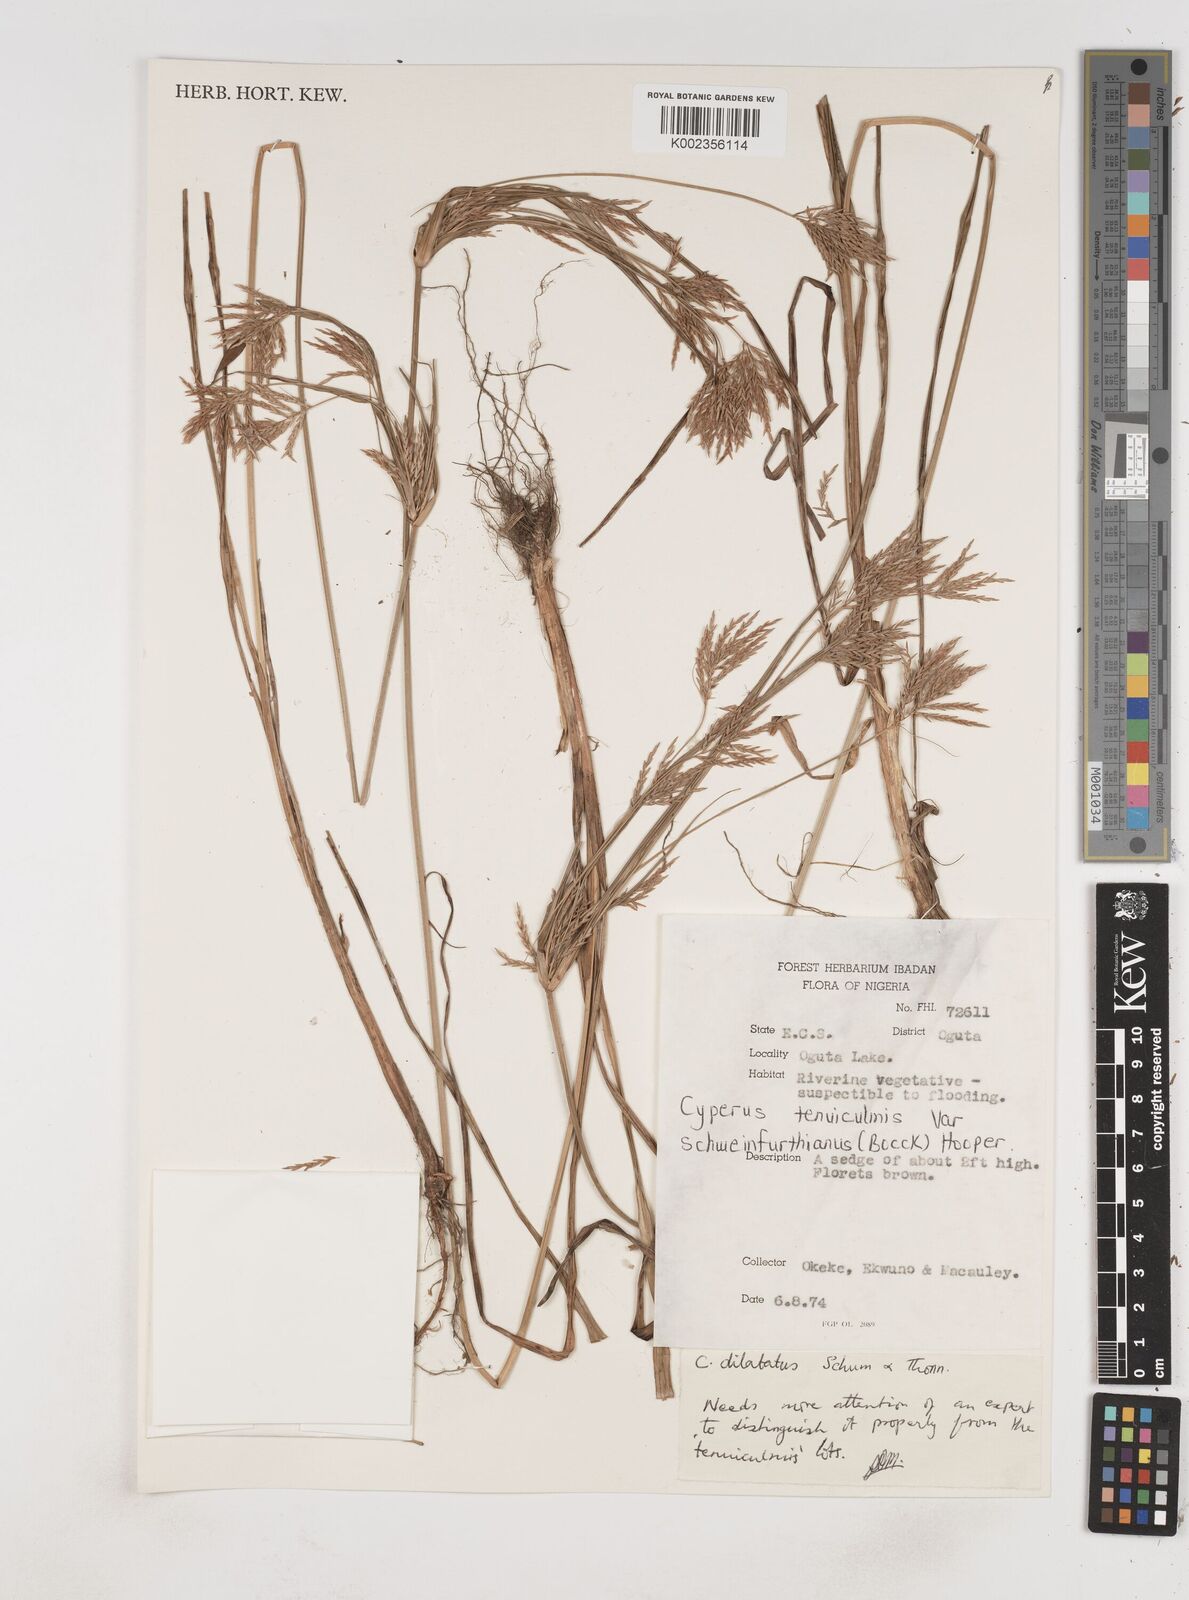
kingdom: Plantae
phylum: Tracheophyta
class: Liliopsida
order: Poales
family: Cyperaceae
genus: Cyperus
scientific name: Cyperus tenuiculmis
